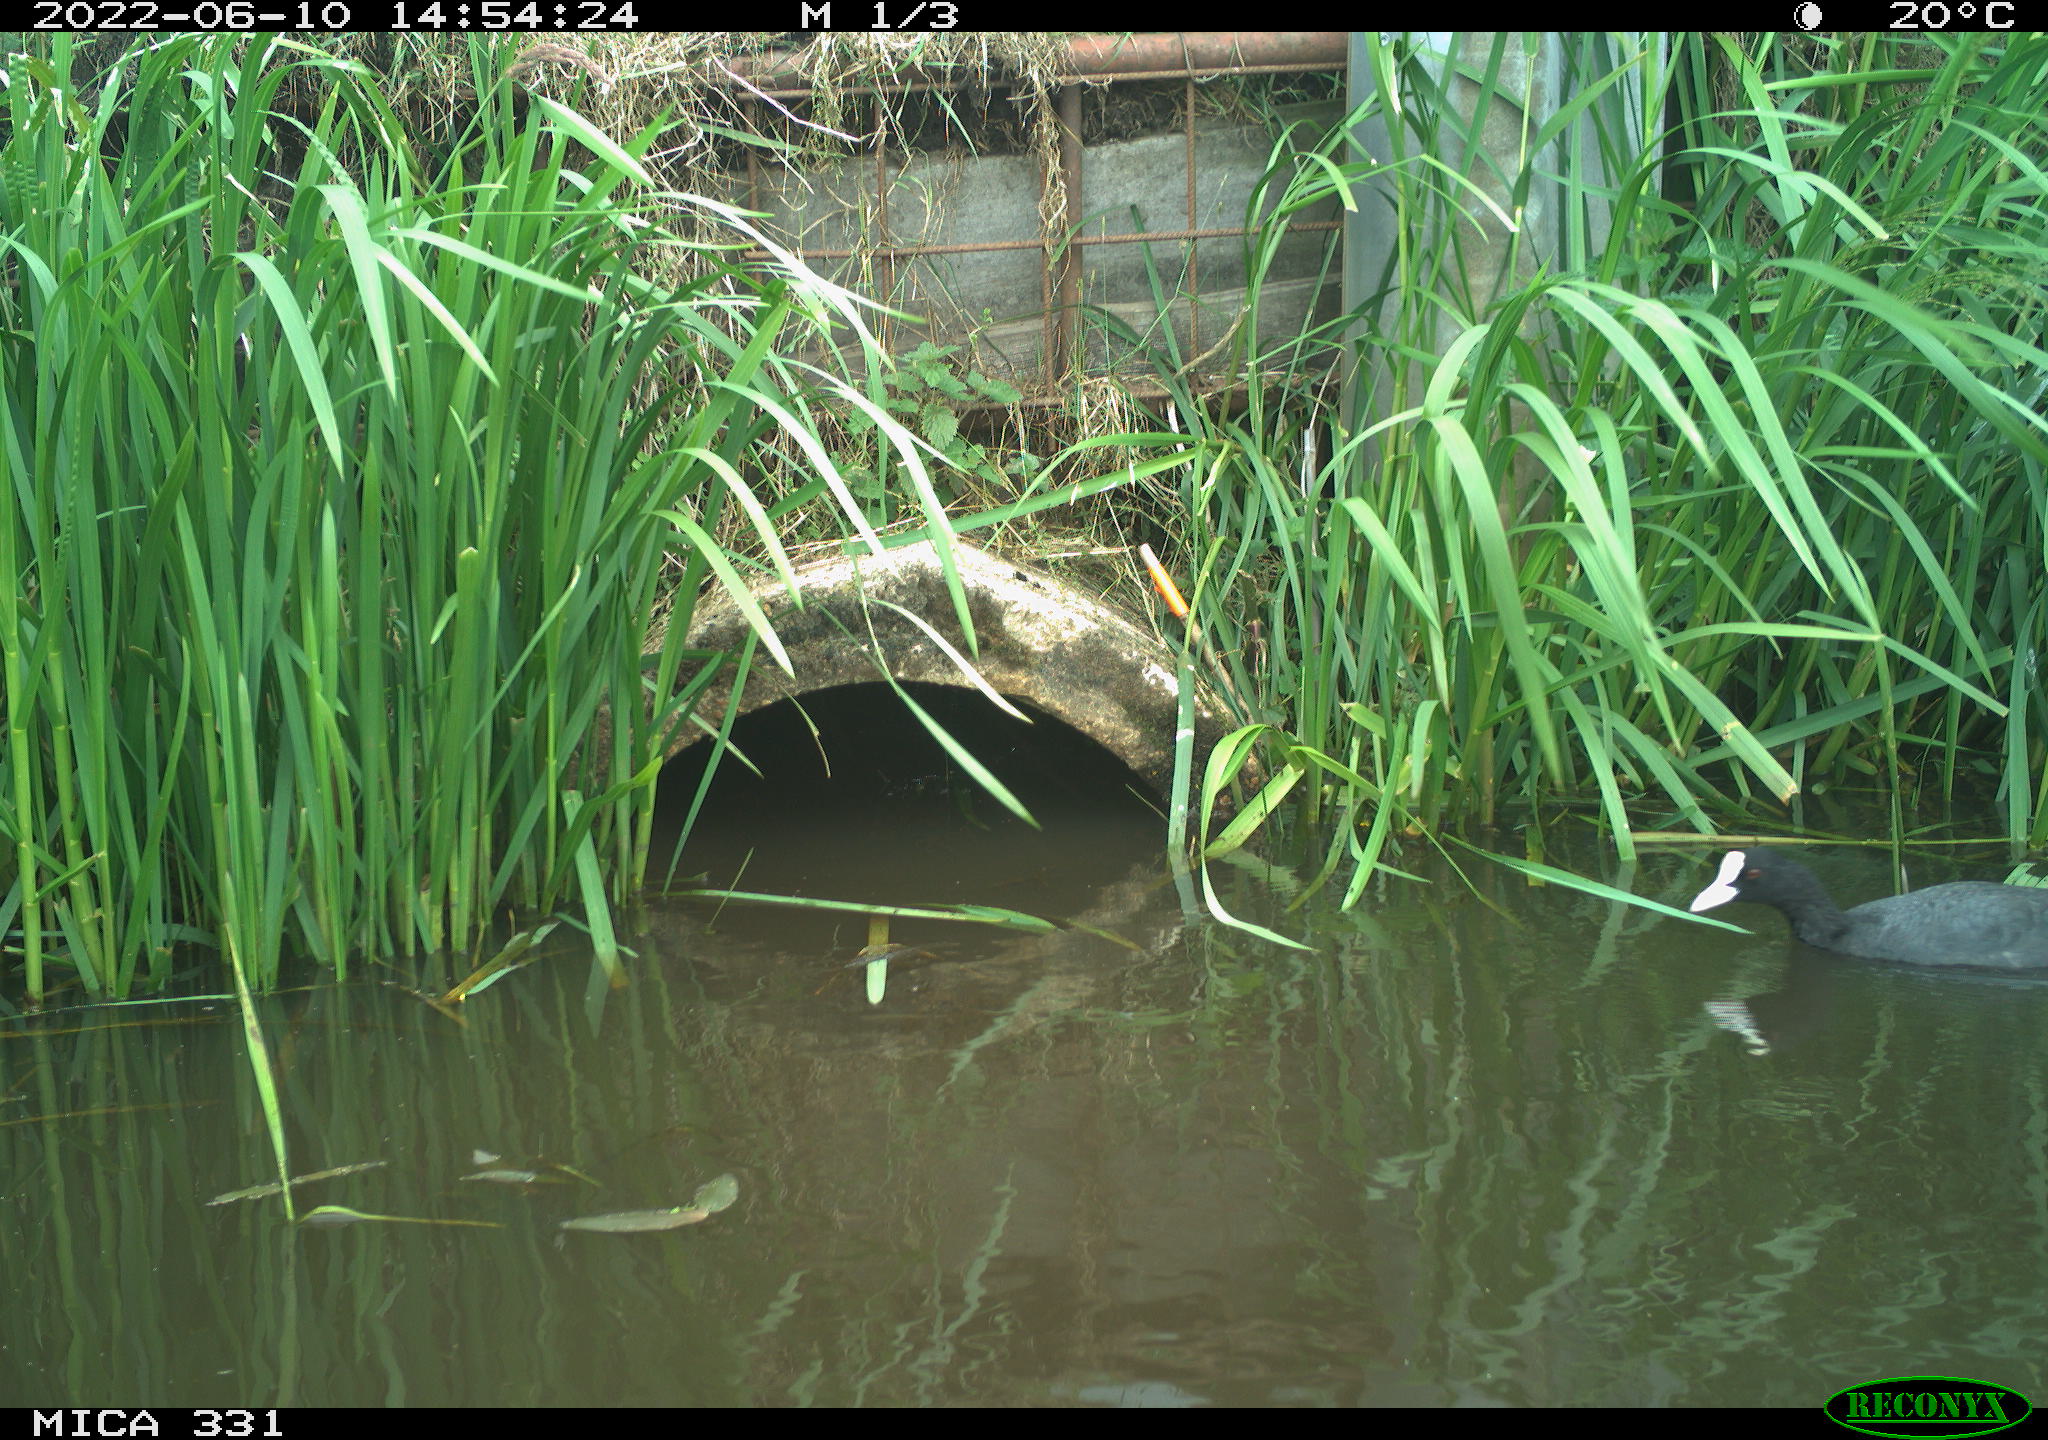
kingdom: Animalia
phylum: Chordata
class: Aves
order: Pelecaniformes
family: Ardeidae
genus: Ardea
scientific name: Ardea
